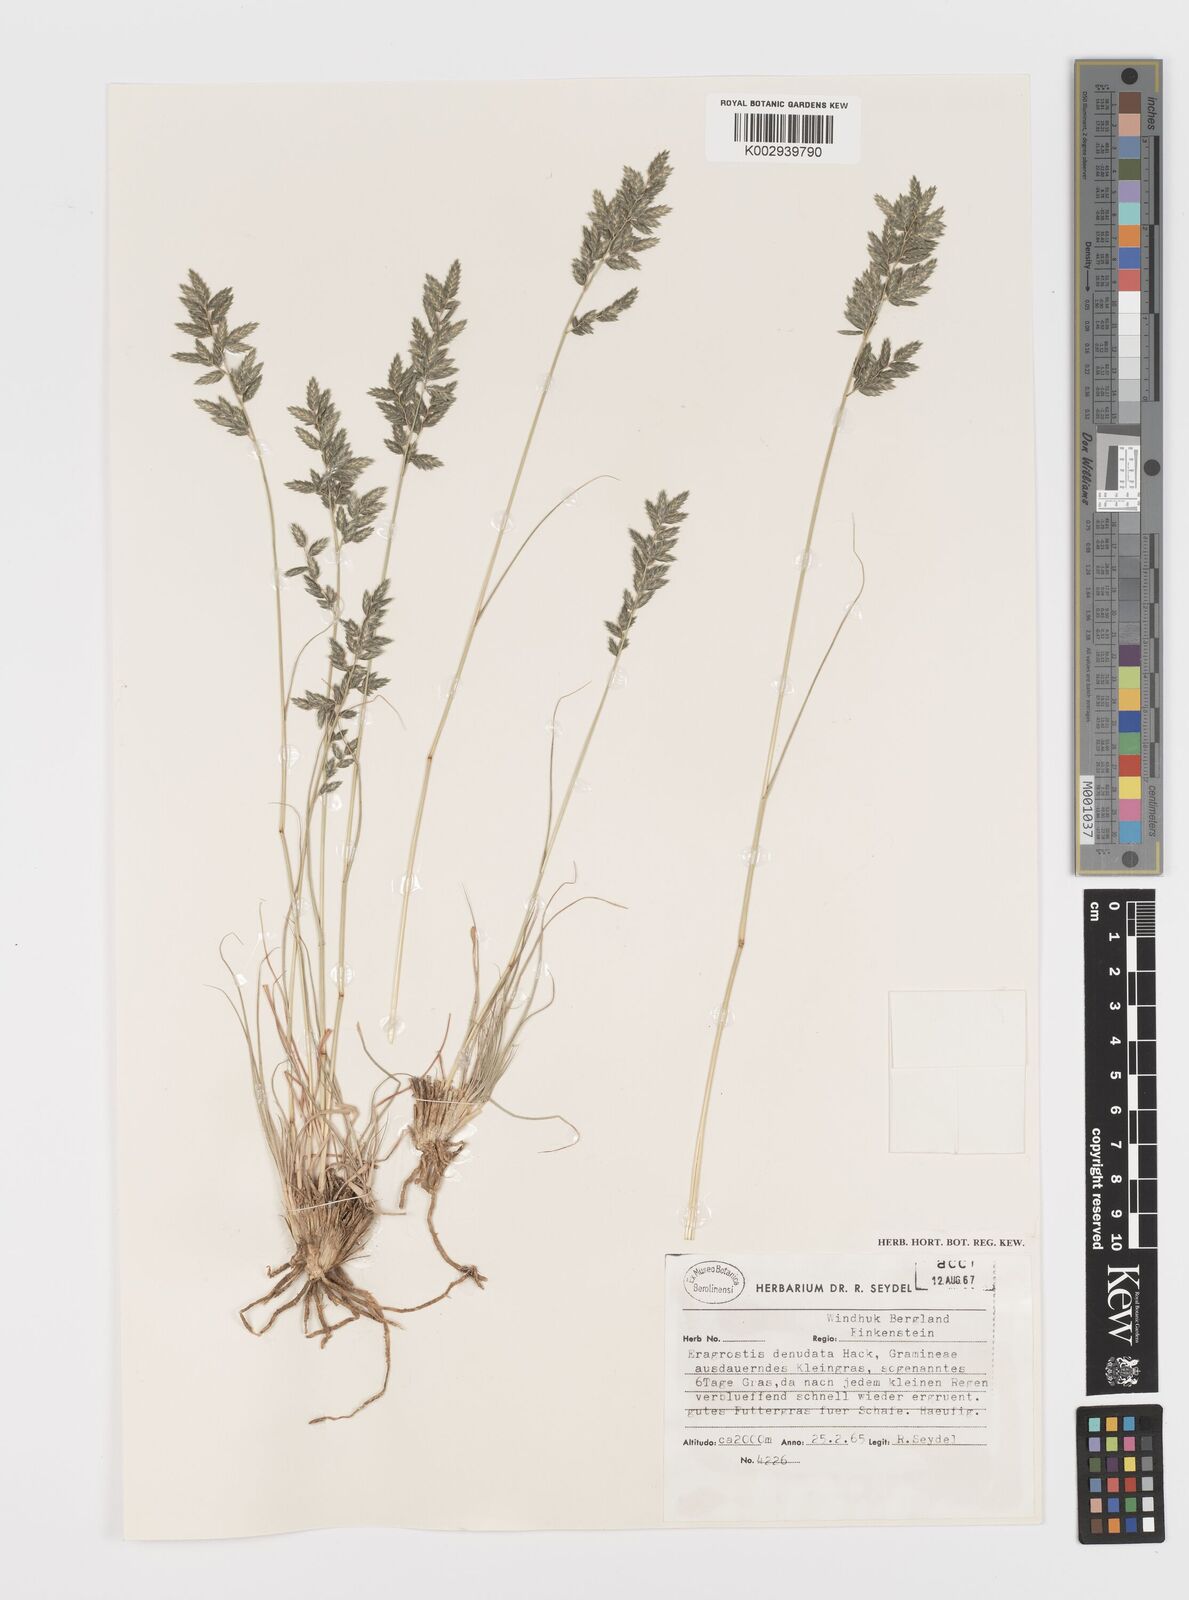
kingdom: Plantae
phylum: Tracheophyta
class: Liliopsida
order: Poales
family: Poaceae
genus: Eragrostis
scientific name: Eragrostis nindensis
